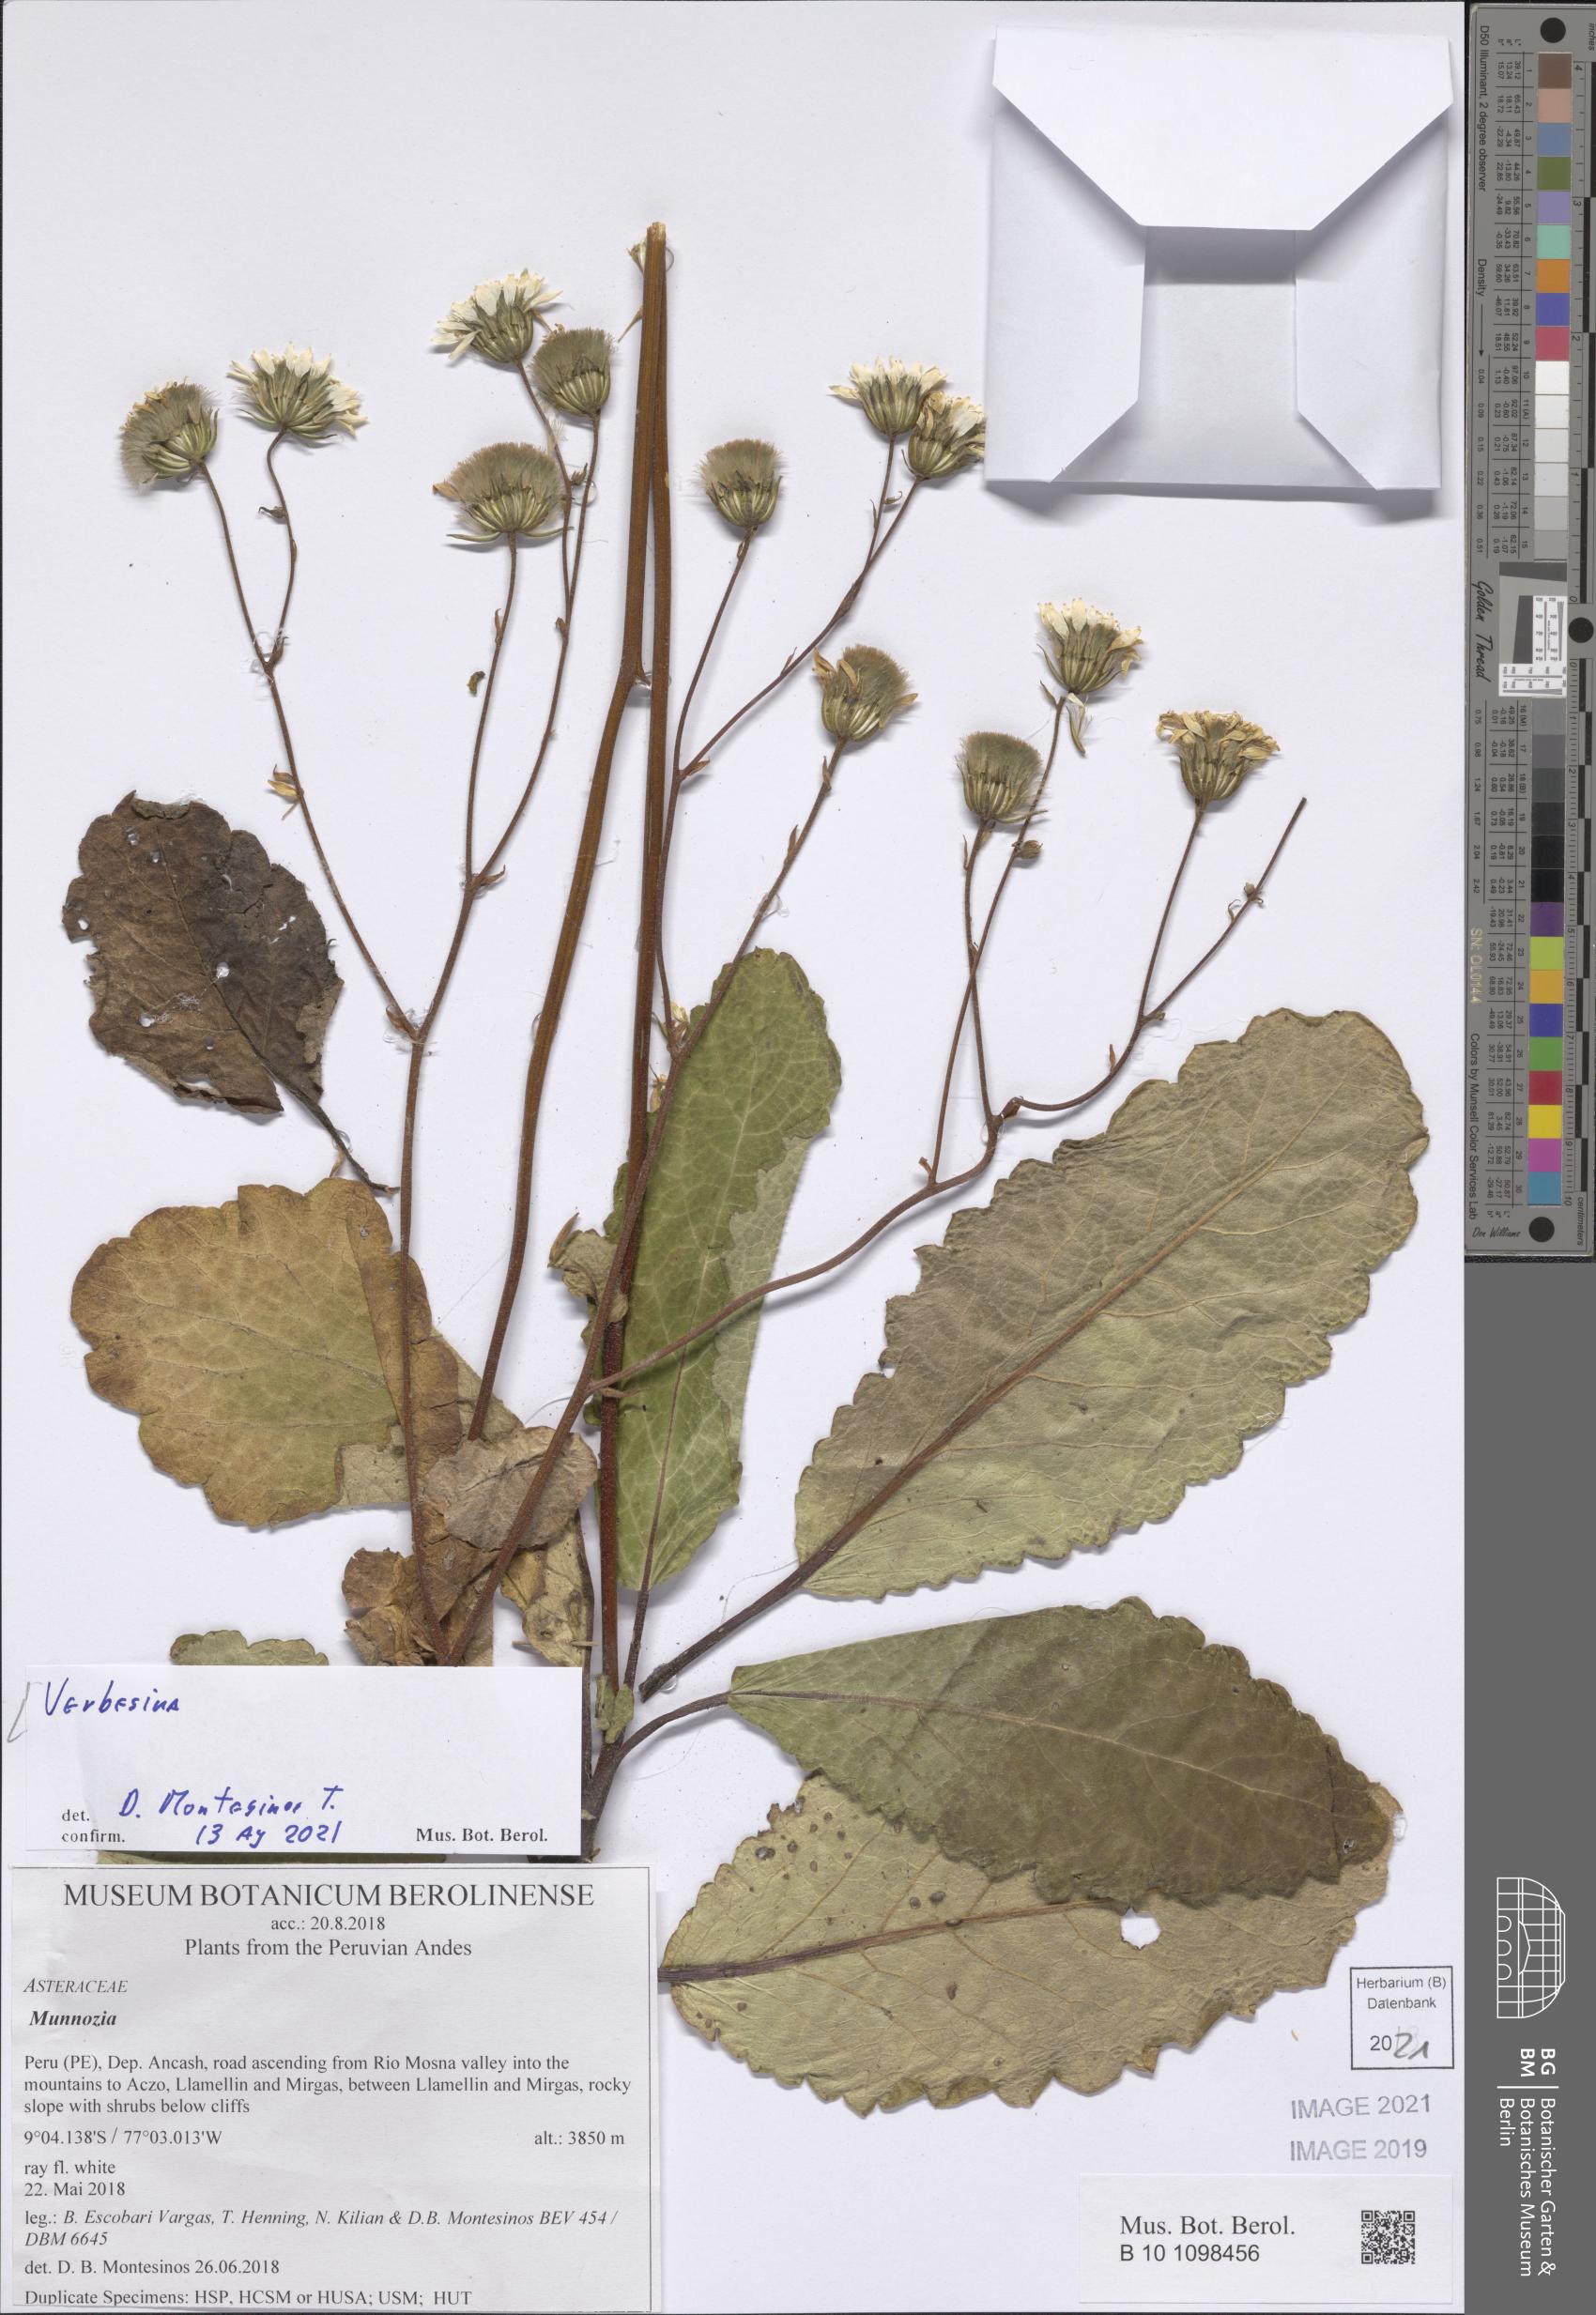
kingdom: Plantae
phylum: Tracheophyta
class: Magnoliopsida
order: Asterales
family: Asteraceae
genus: Verbesina
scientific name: Verbesina
